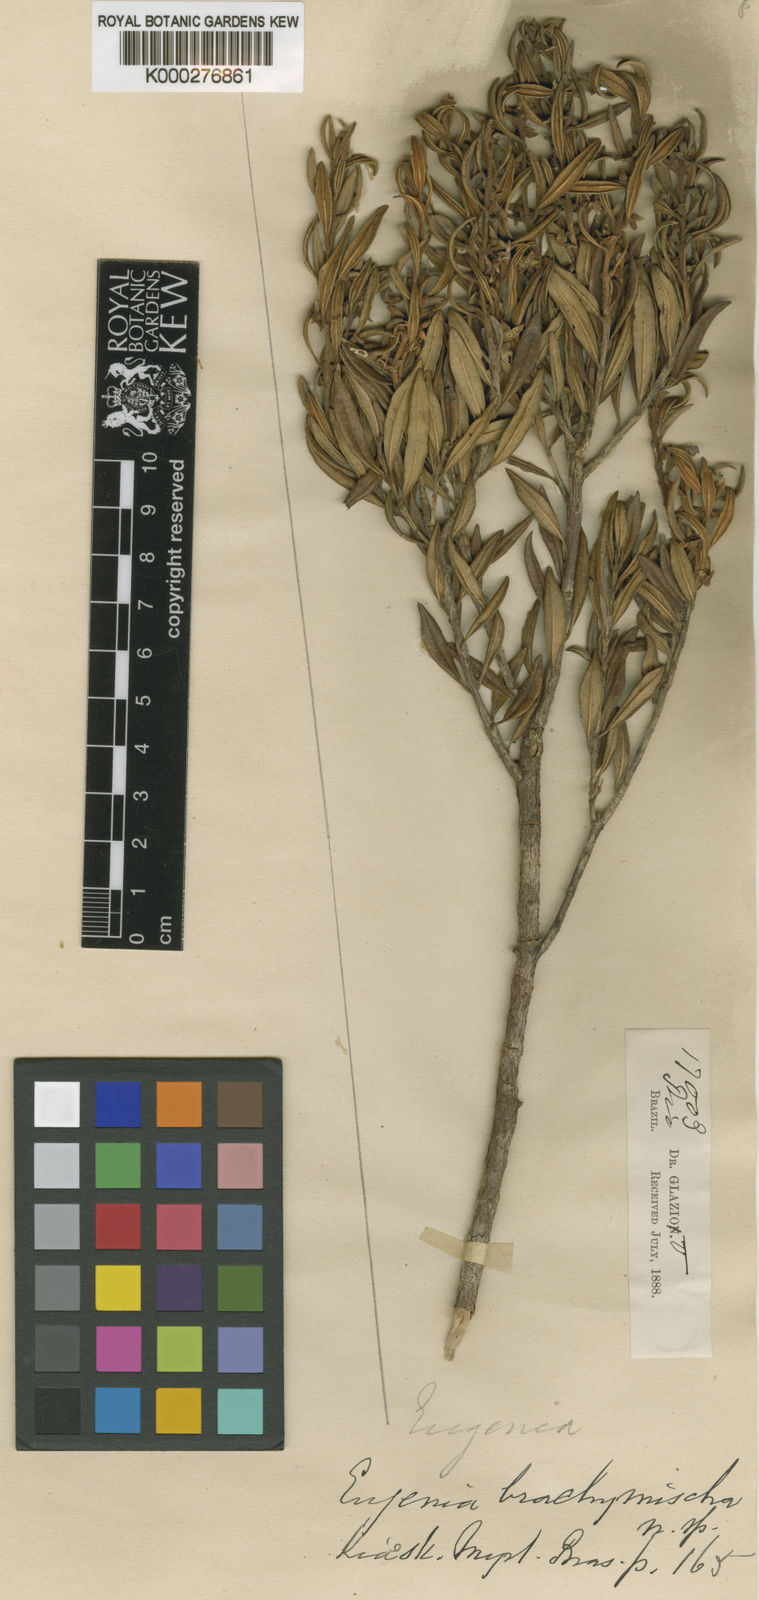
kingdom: Plantae
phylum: Tracheophyta
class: Magnoliopsida
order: Myrtales
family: Myrtaceae
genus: Myrceugenia
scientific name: Myrceugenia bracteosa
